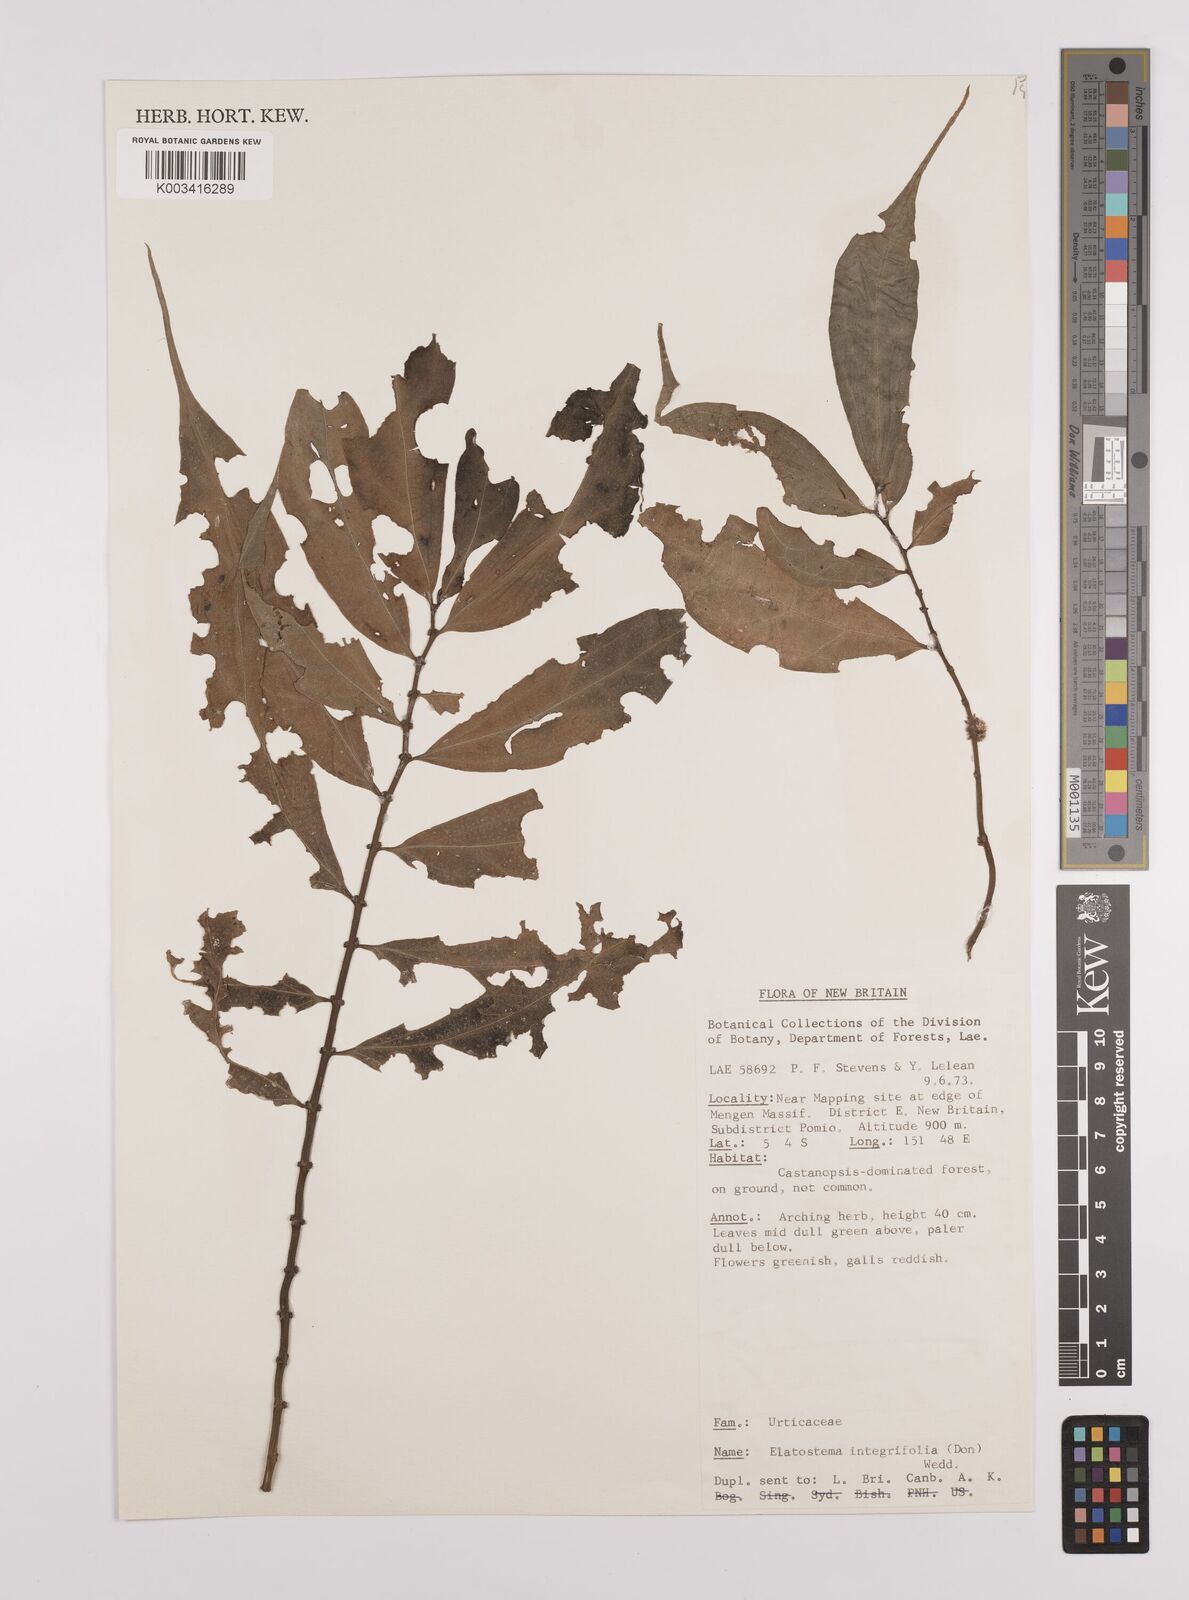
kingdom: Plantae
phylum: Tracheophyta
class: Magnoliopsida
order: Rosales
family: Urticaceae
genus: Elatostema
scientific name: Elatostema integrifolium
